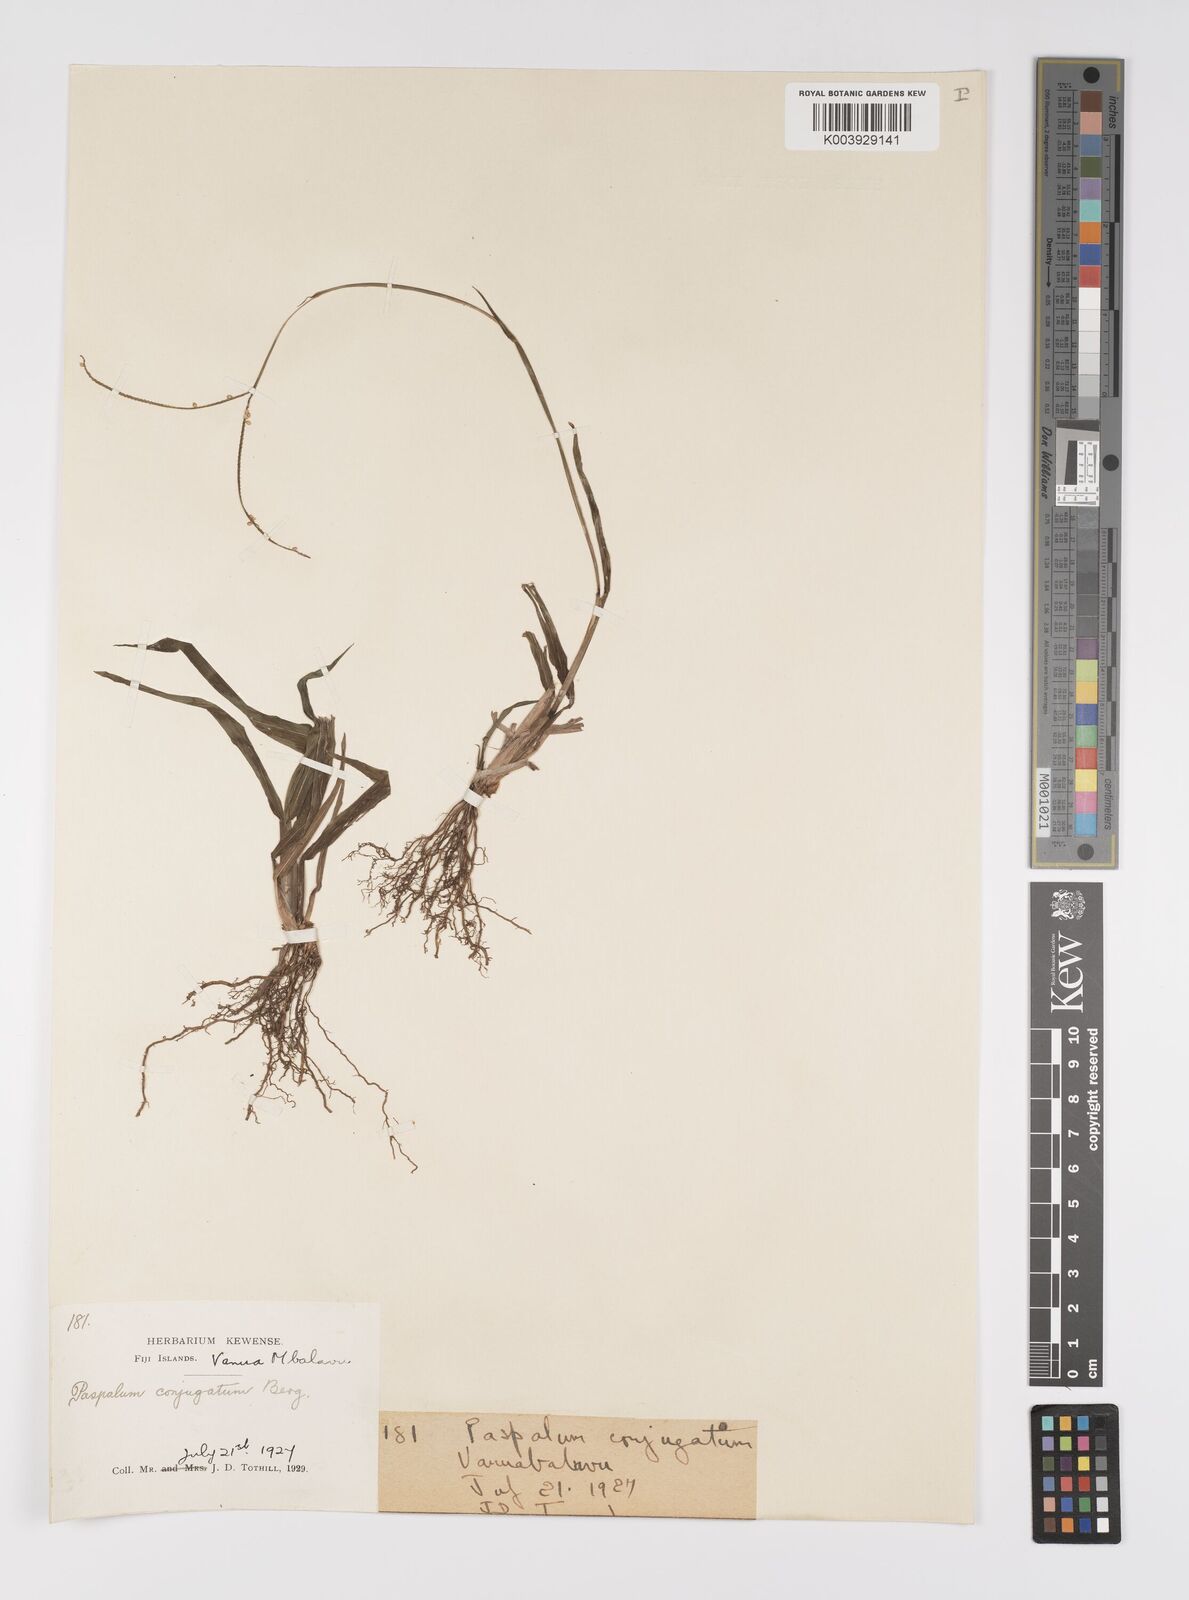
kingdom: Plantae
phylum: Tracheophyta
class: Liliopsida
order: Poales
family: Poaceae
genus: Paspalum
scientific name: Paspalum conjugatum
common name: Hilograss
